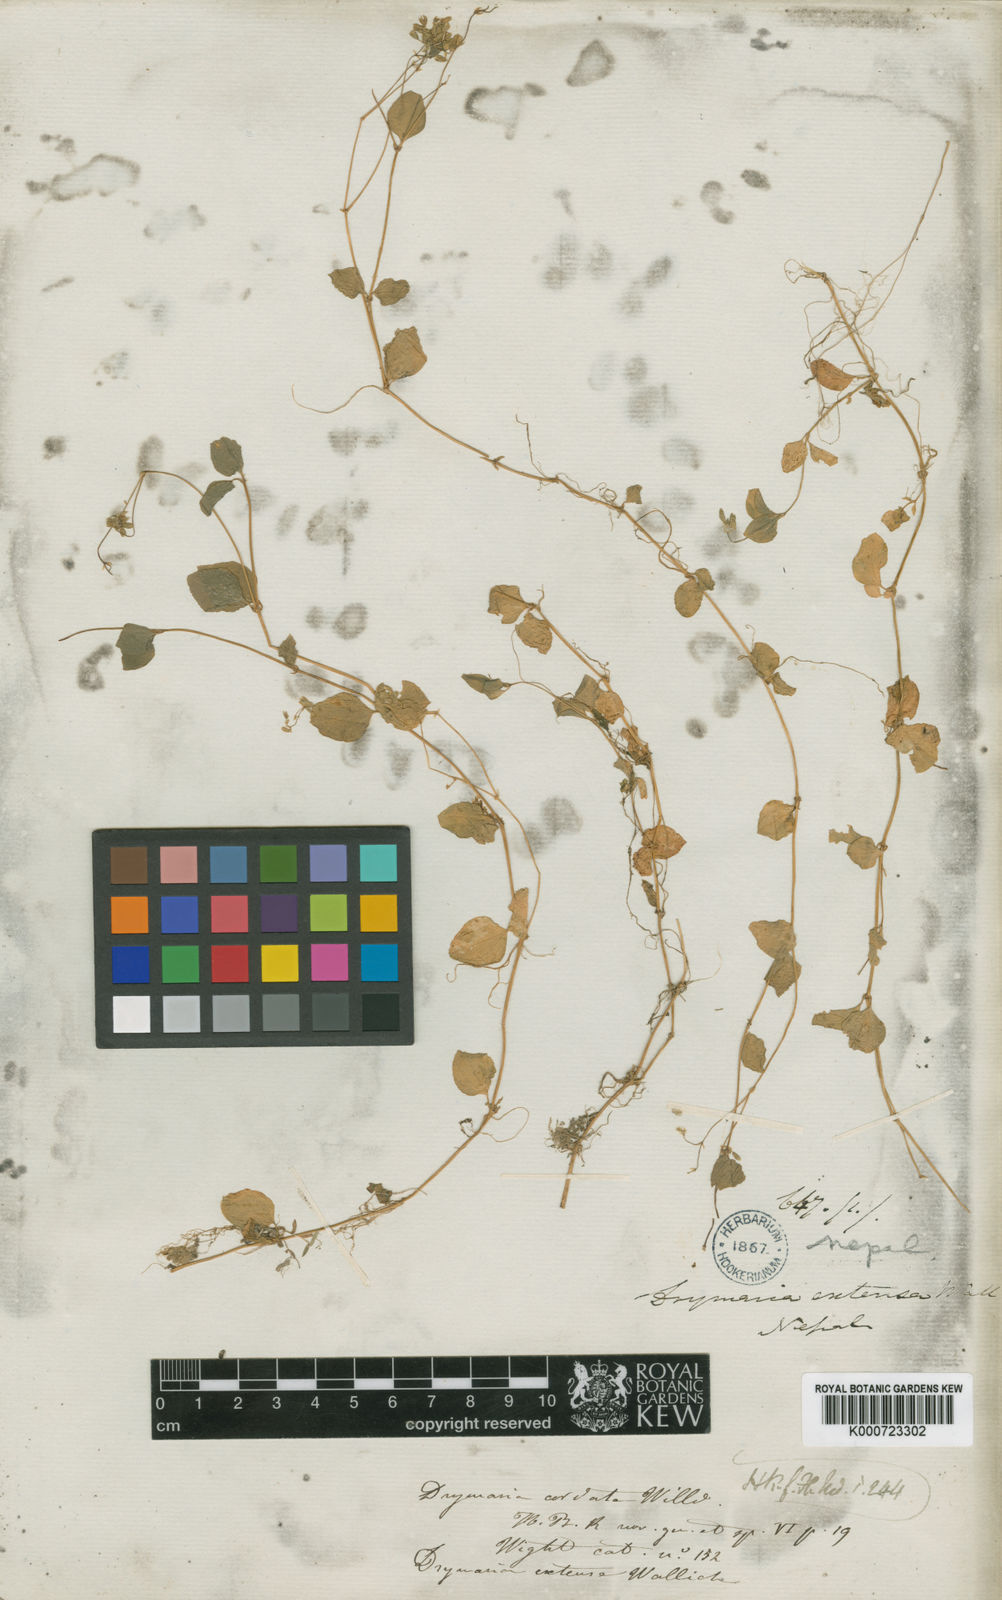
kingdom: Plantae
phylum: Tracheophyta
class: Magnoliopsida
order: Caryophyllales
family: Caryophyllaceae
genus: Drymaria
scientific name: Drymaria cordata
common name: Whitesnow
